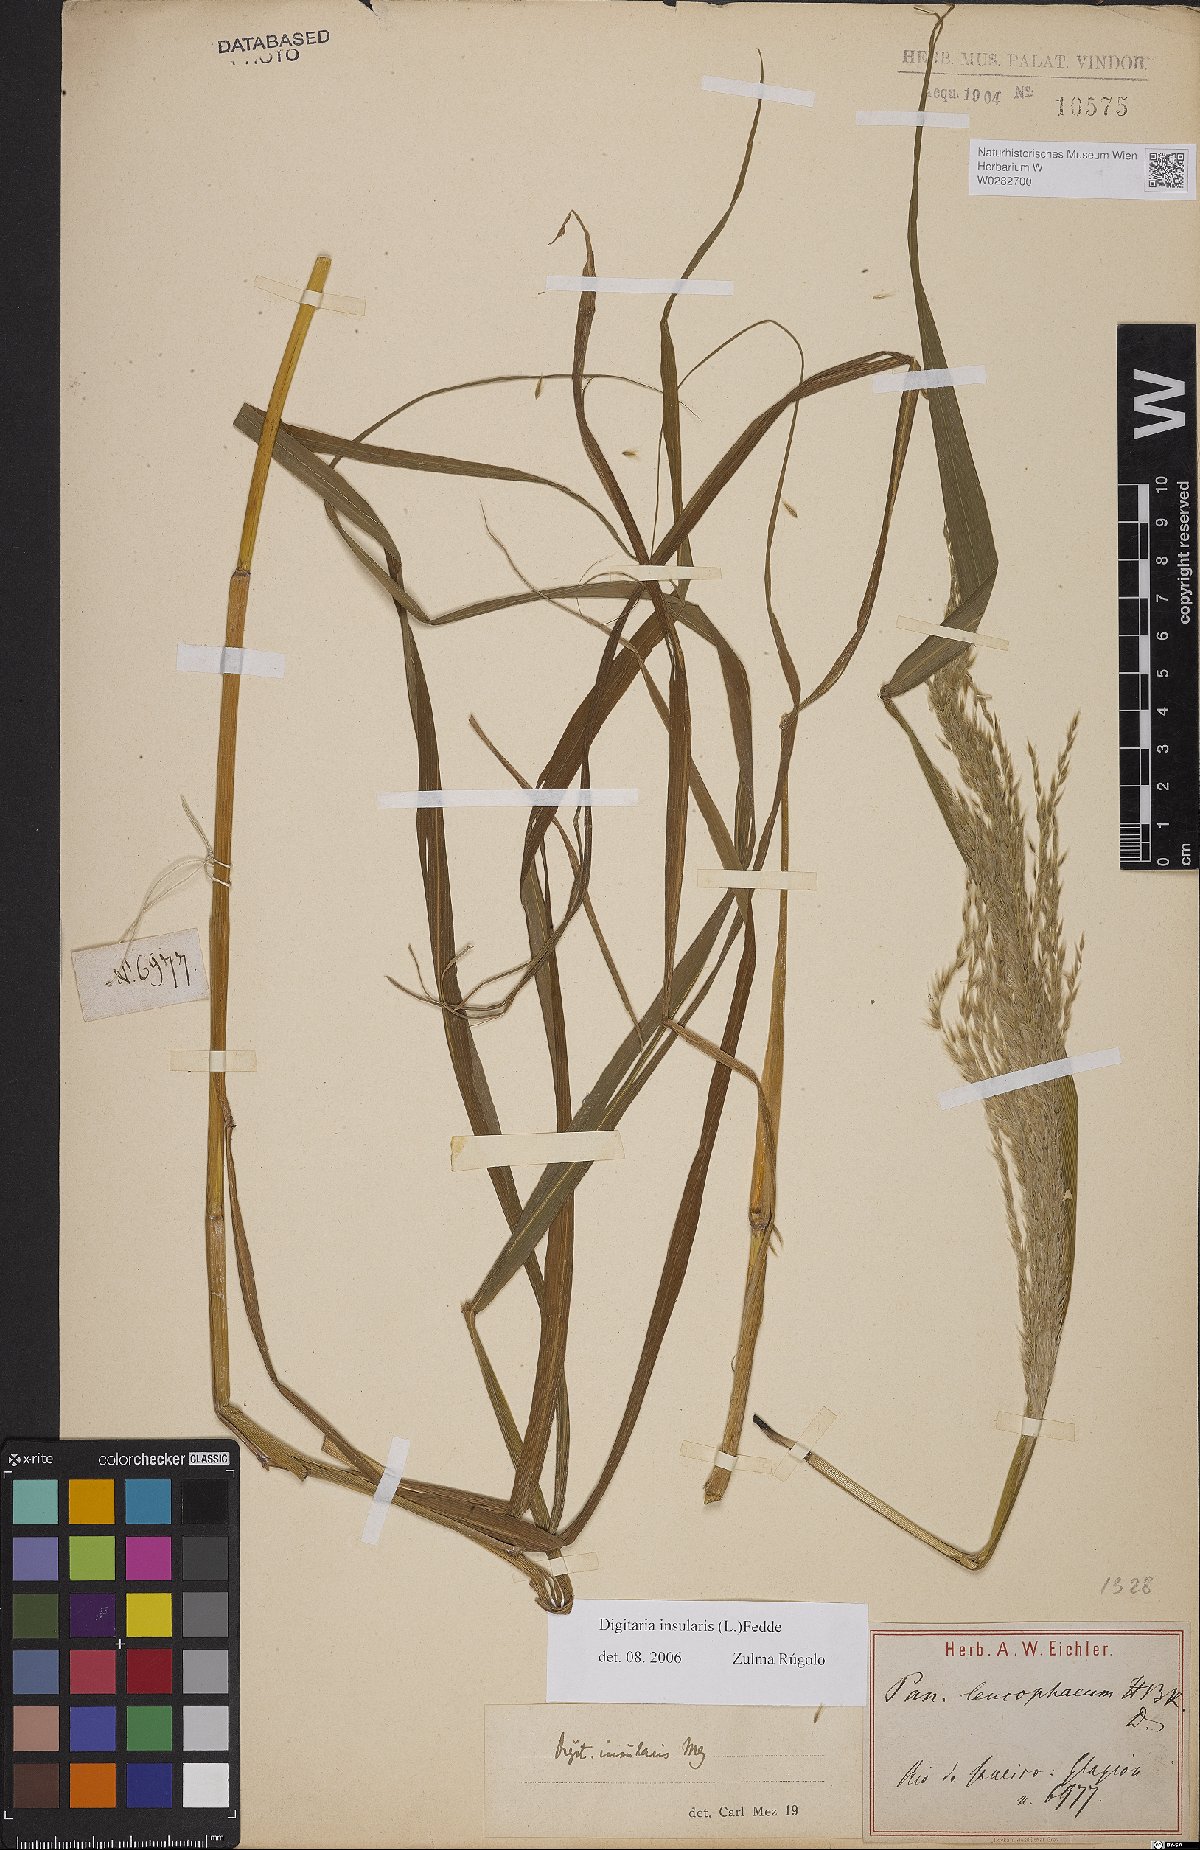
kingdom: Plantae
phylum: Tracheophyta
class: Liliopsida
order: Poales
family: Poaceae
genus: Digitaria
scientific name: Digitaria insularis
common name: Sourgrass
